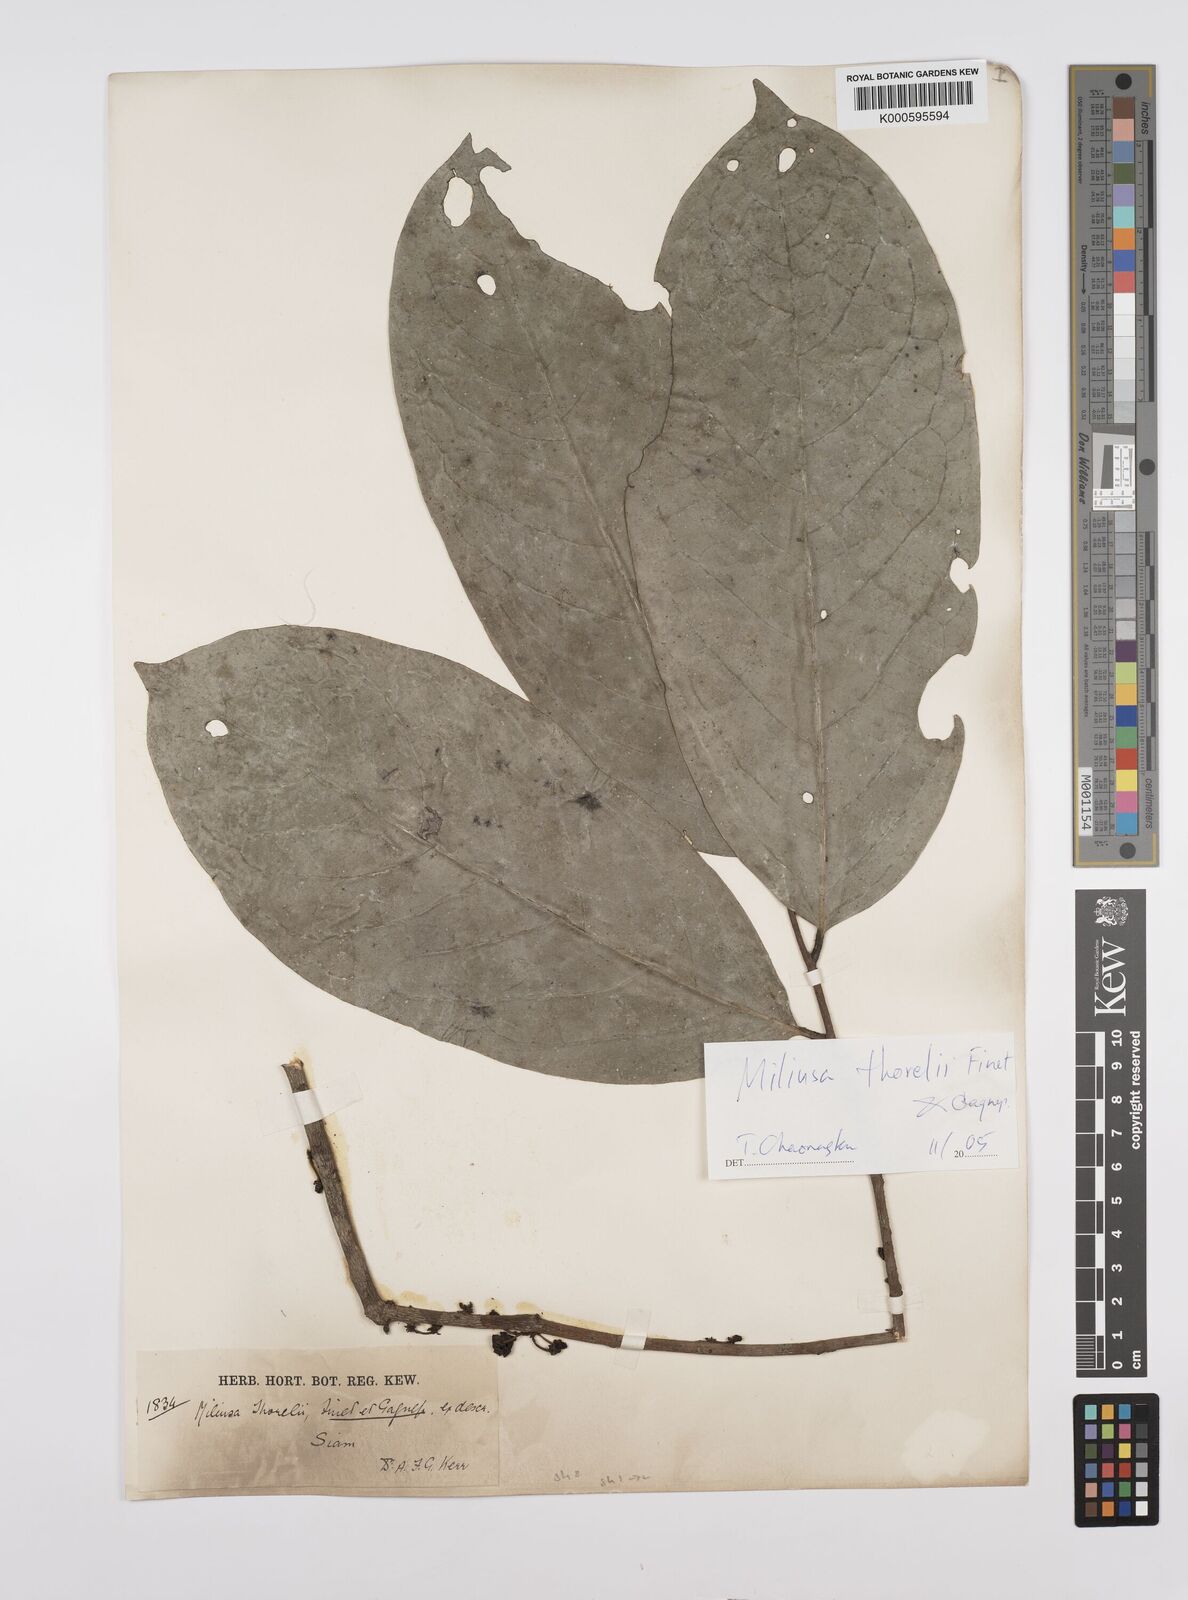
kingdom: Plantae
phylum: Tracheophyta
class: Magnoliopsida
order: Magnoliales
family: Annonaceae
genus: Miliusa
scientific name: Miliusa thorelii
